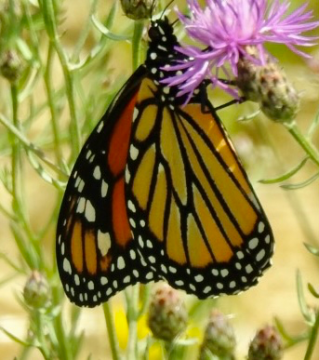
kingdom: Animalia
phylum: Arthropoda
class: Insecta
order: Lepidoptera
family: Nymphalidae
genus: Danaus
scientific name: Danaus plexippus
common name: Monarch
